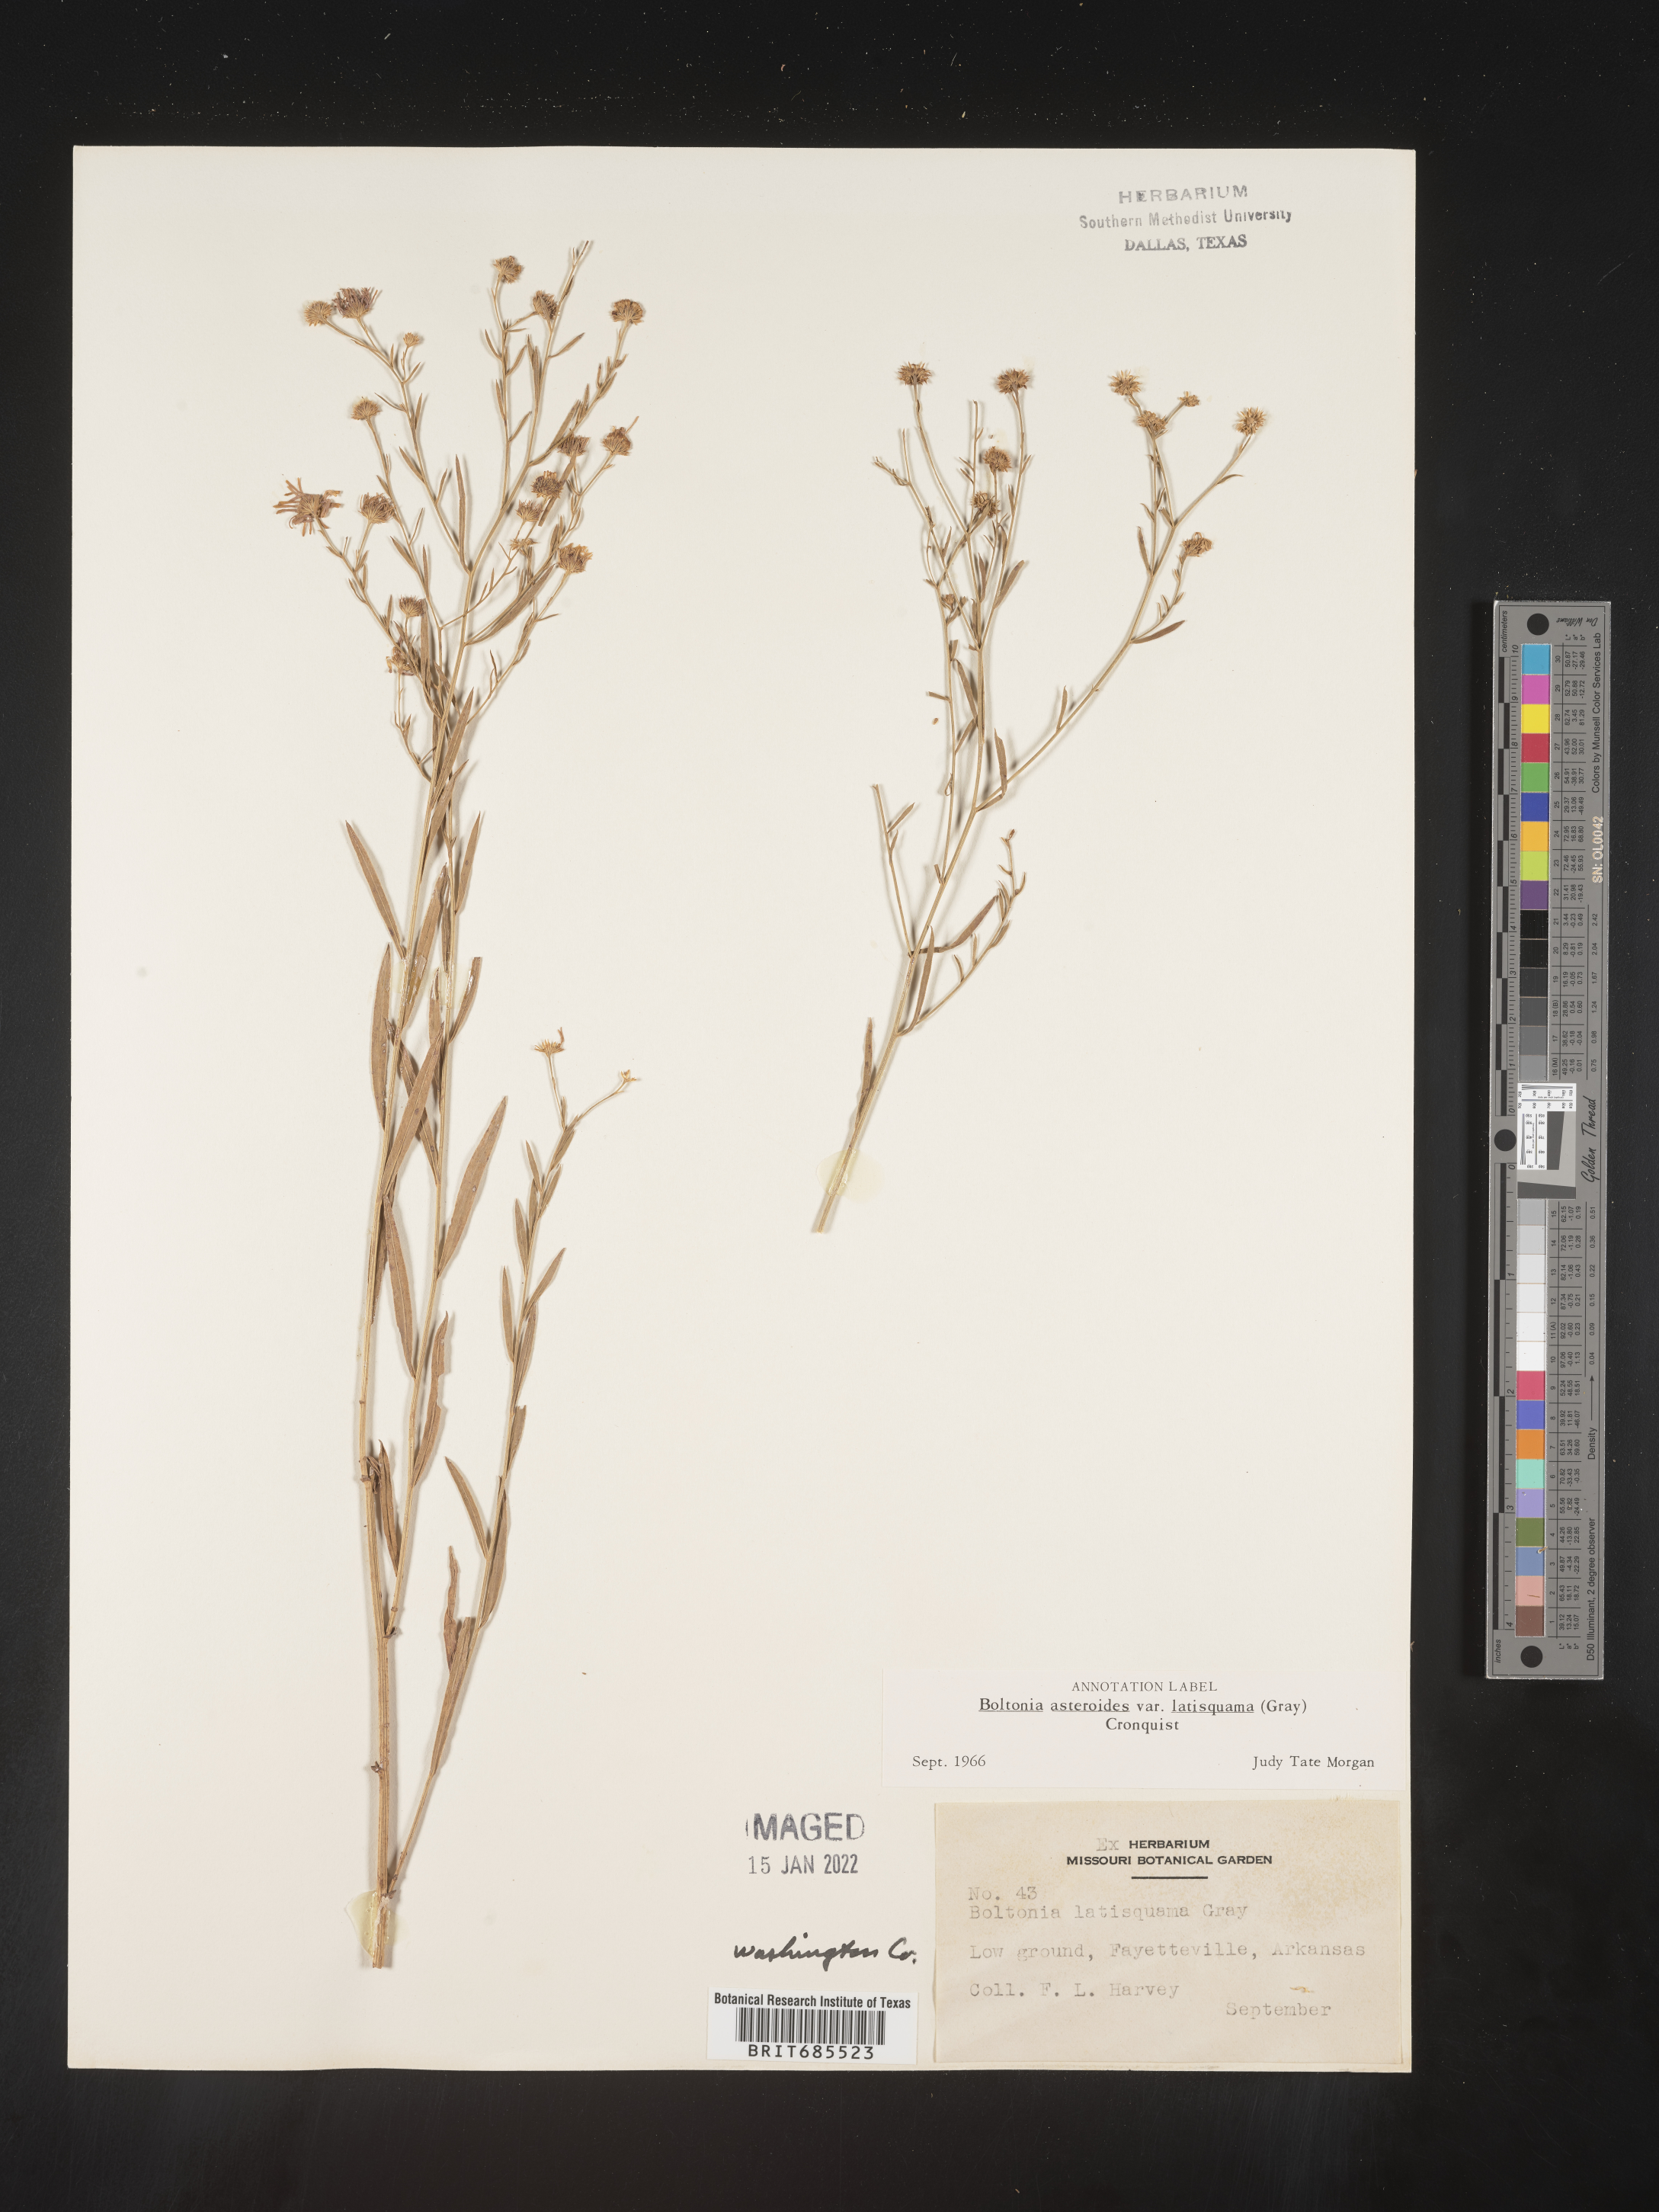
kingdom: Plantae
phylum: Tracheophyta
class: Magnoliopsida
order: Asterales
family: Asteraceae
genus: Boltonia
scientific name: Boltonia asteroides
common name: False chamomile
